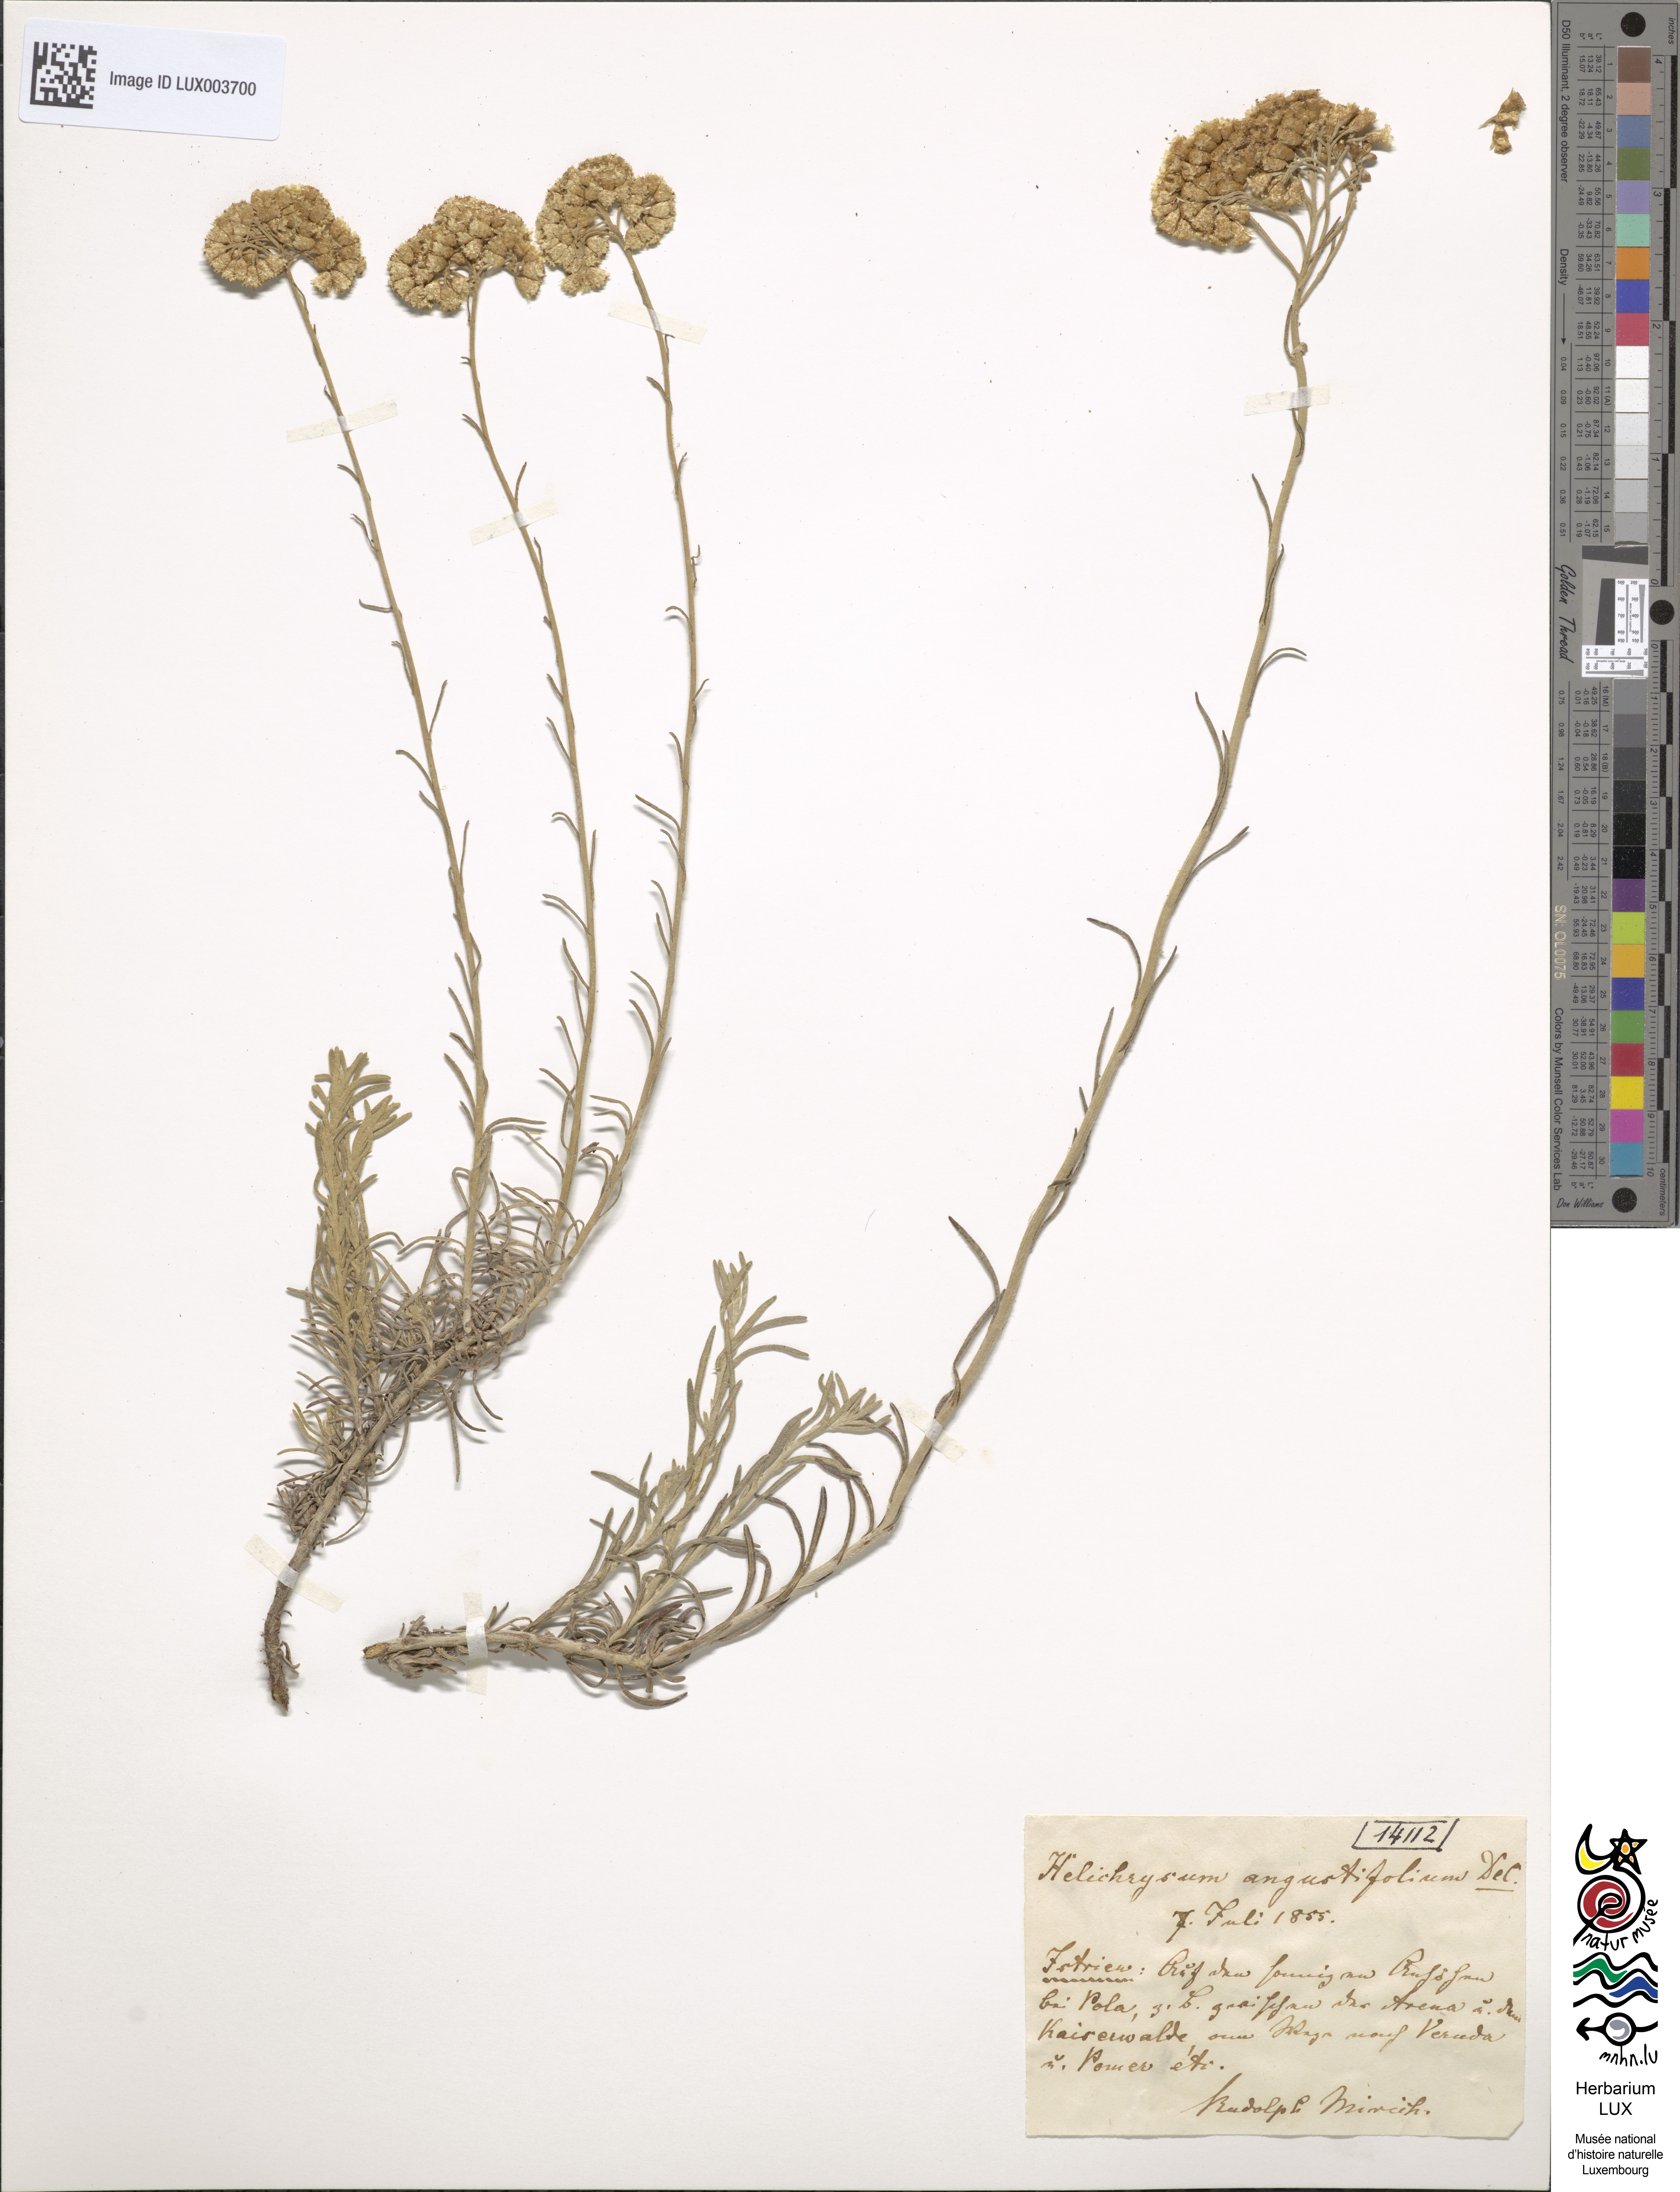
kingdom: Plantae
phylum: Tracheophyta
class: Magnoliopsida
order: Asterales
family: Asteraceae
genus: Helichrysum
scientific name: Helichrysum italicum
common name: Curryplant
